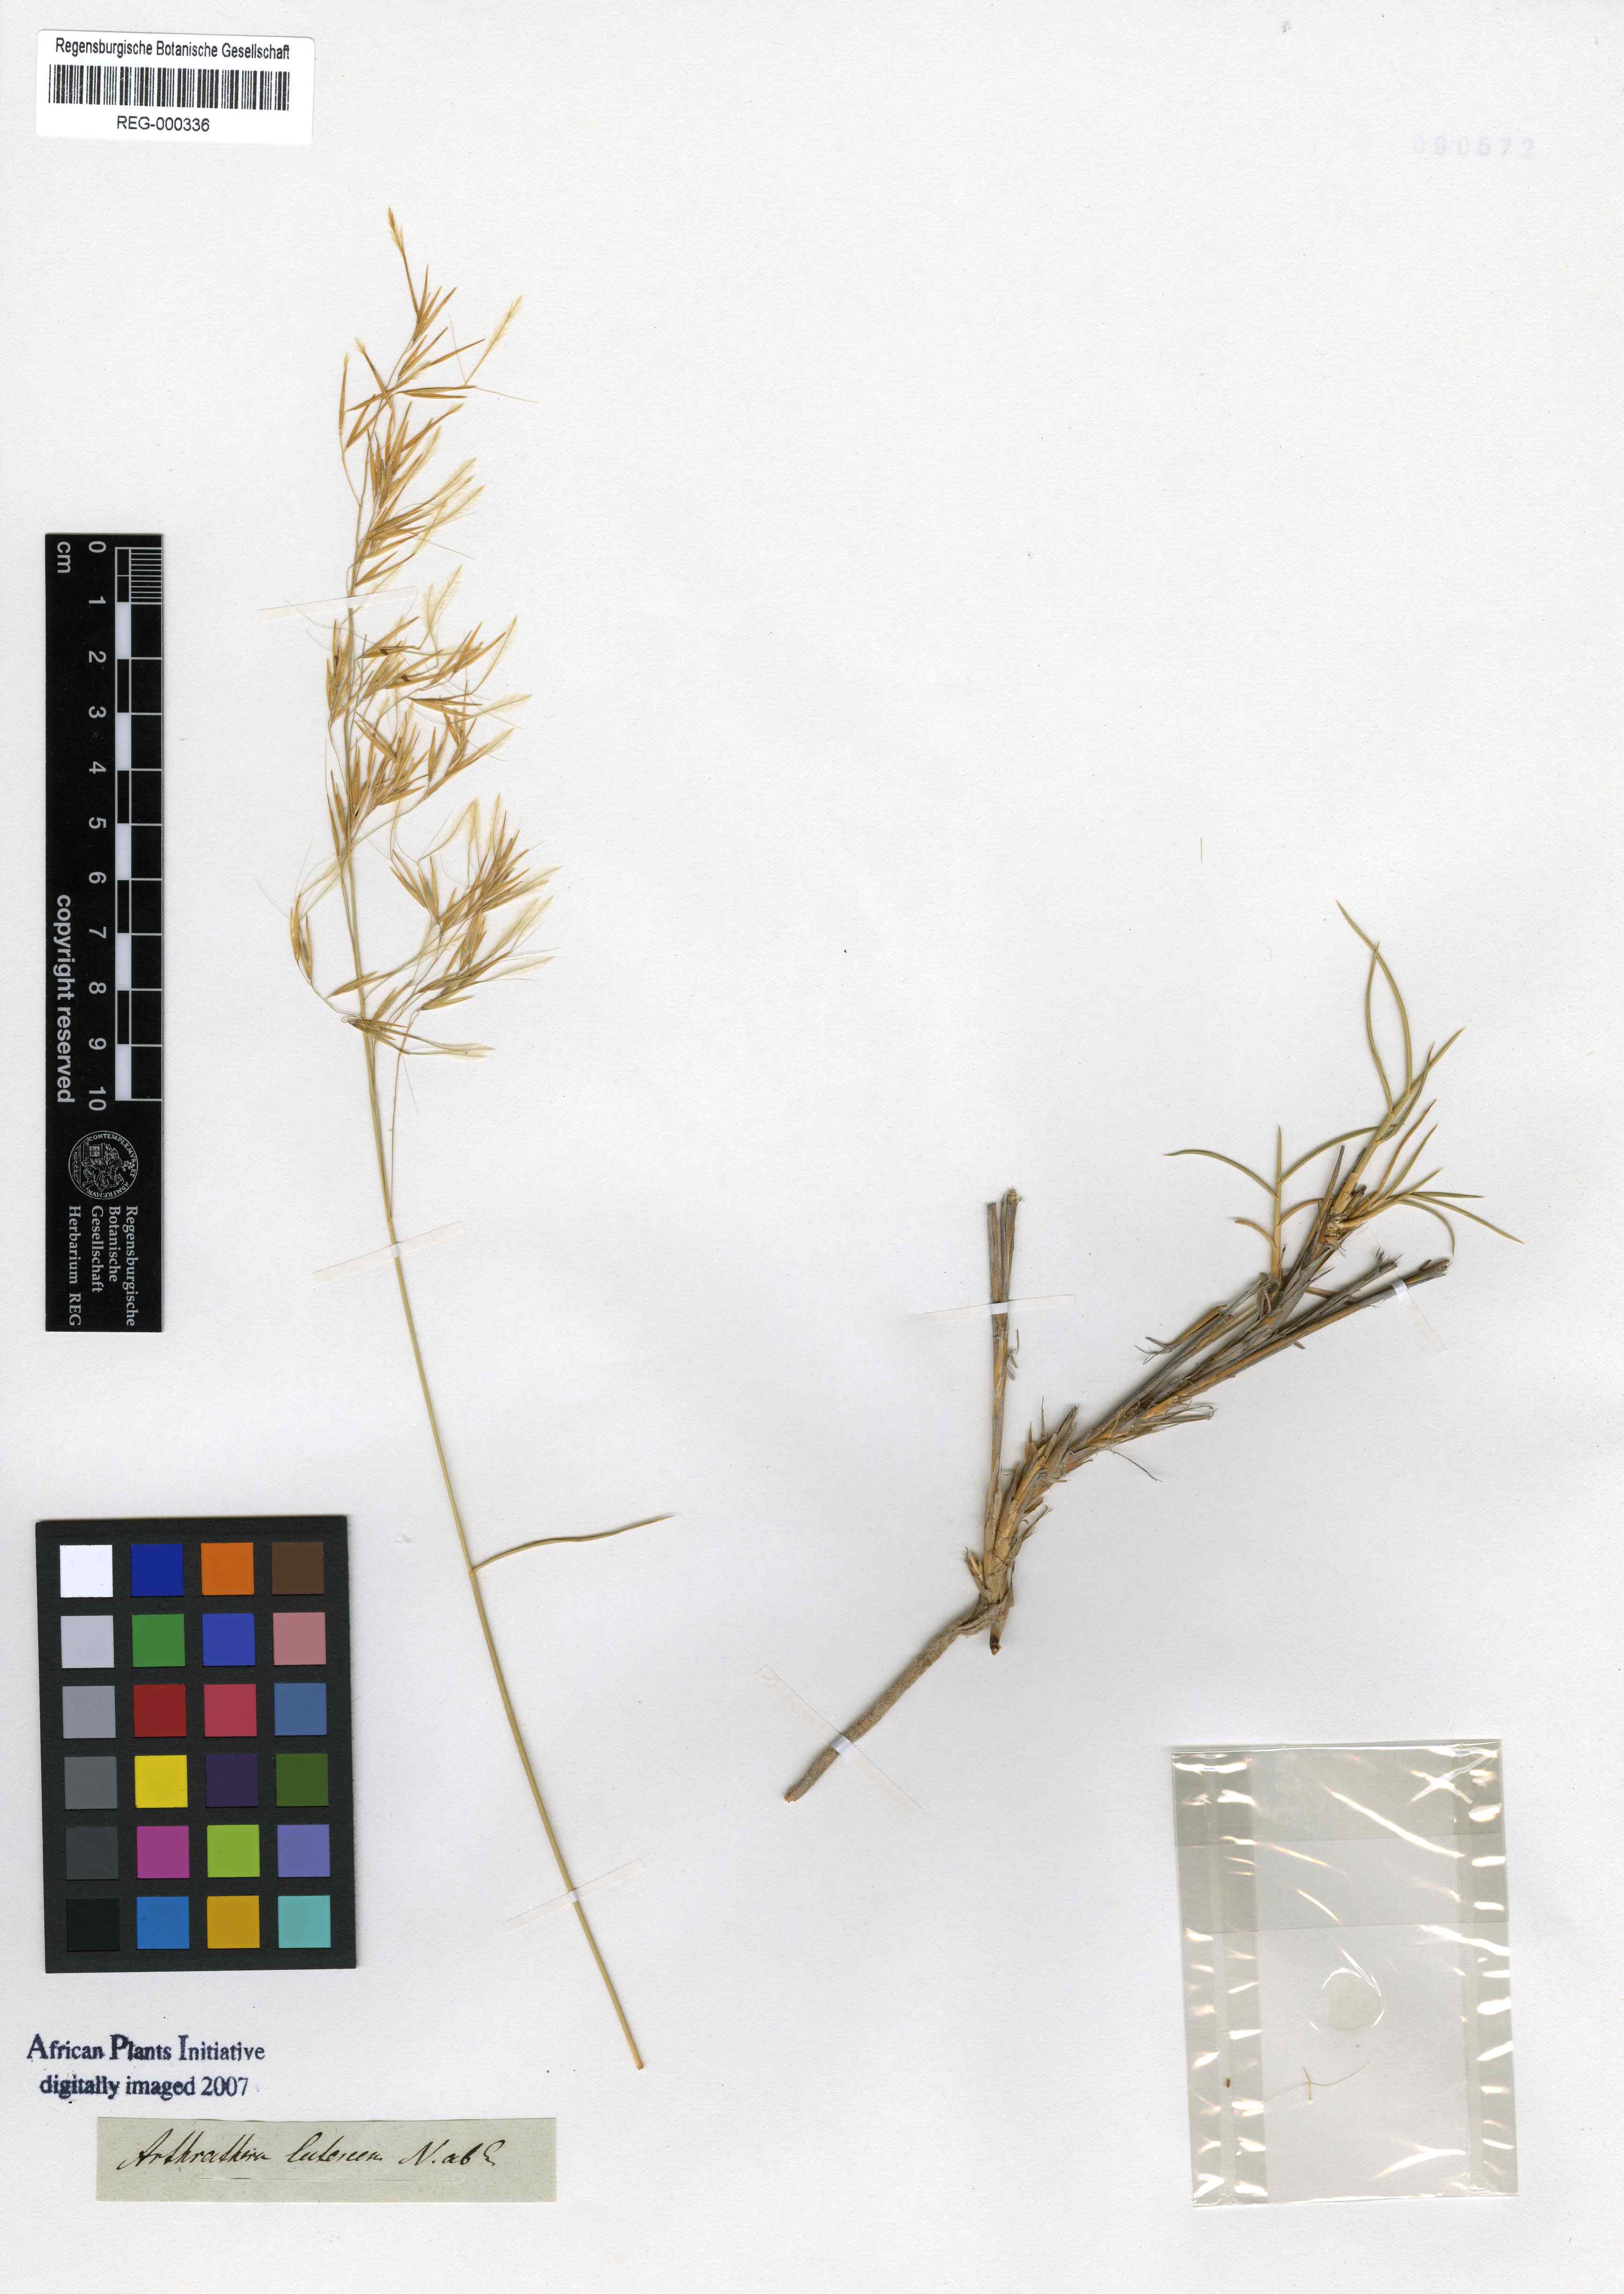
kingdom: Plantae
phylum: Tracheophyta
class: Liliopsida
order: Poales
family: Poaceae
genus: Stipagrostis
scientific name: Stipagrostis lutescens
